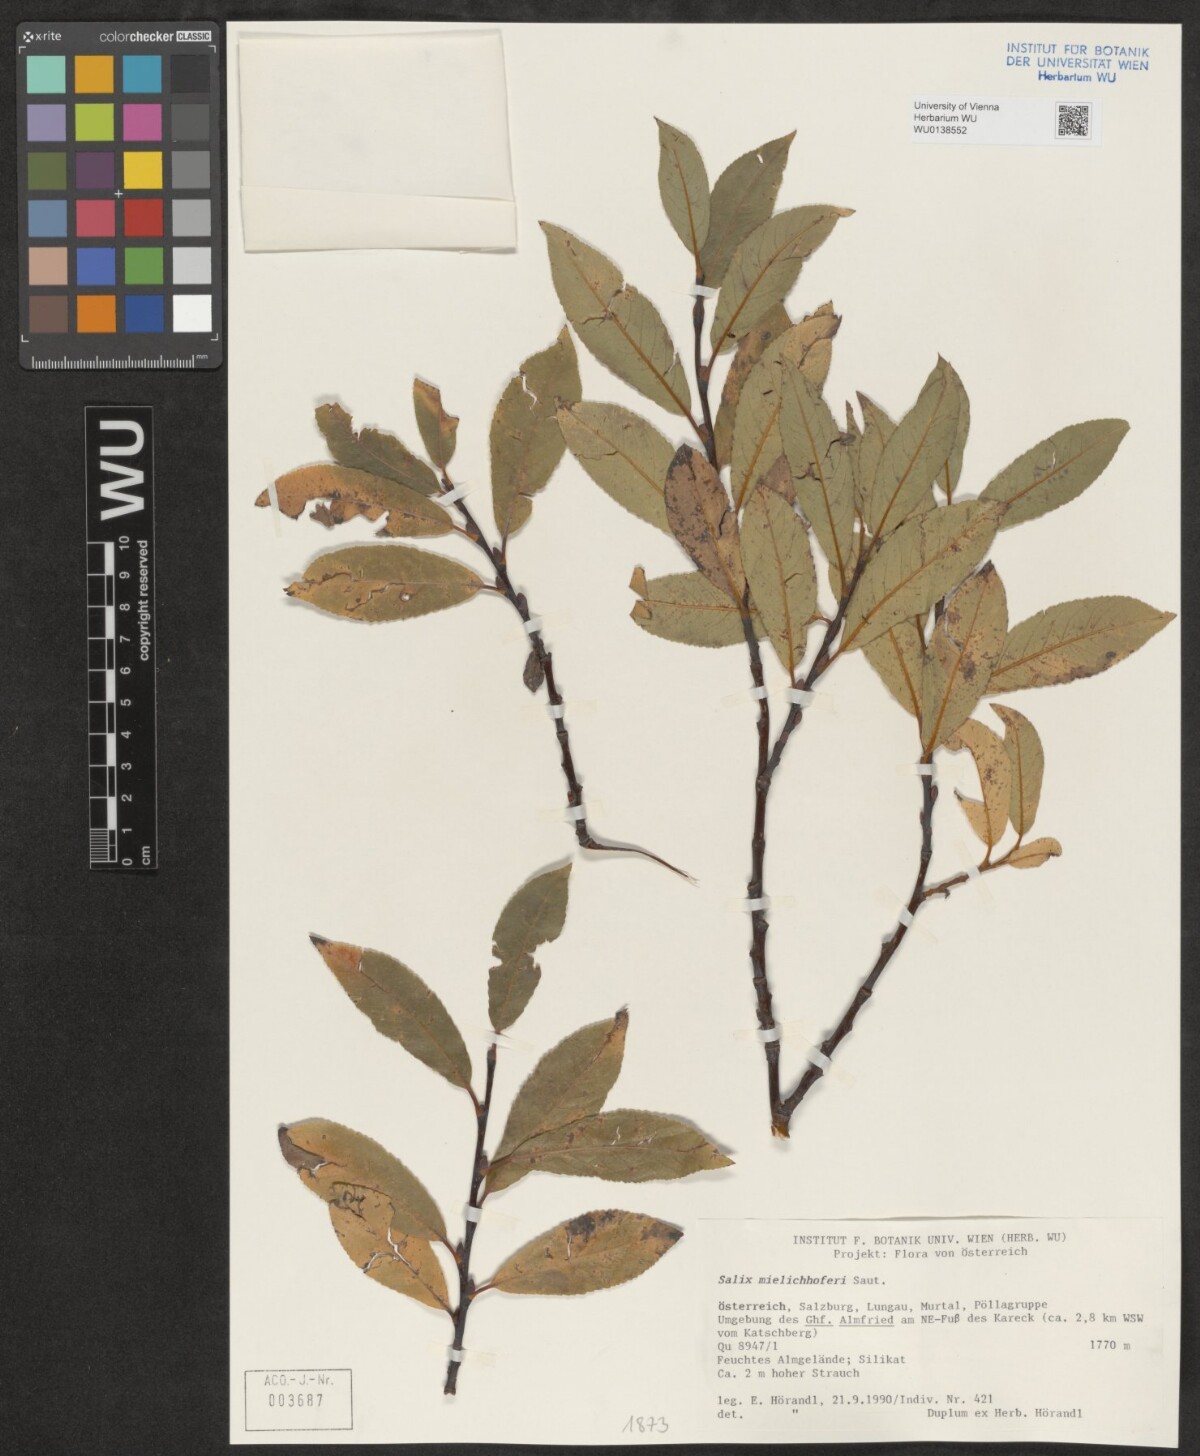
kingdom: Plantae
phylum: Tracheophyta
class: Magnoliopsida
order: Malpighiales
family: Salicaceae
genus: Salix
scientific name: Salix mielichhoferi
